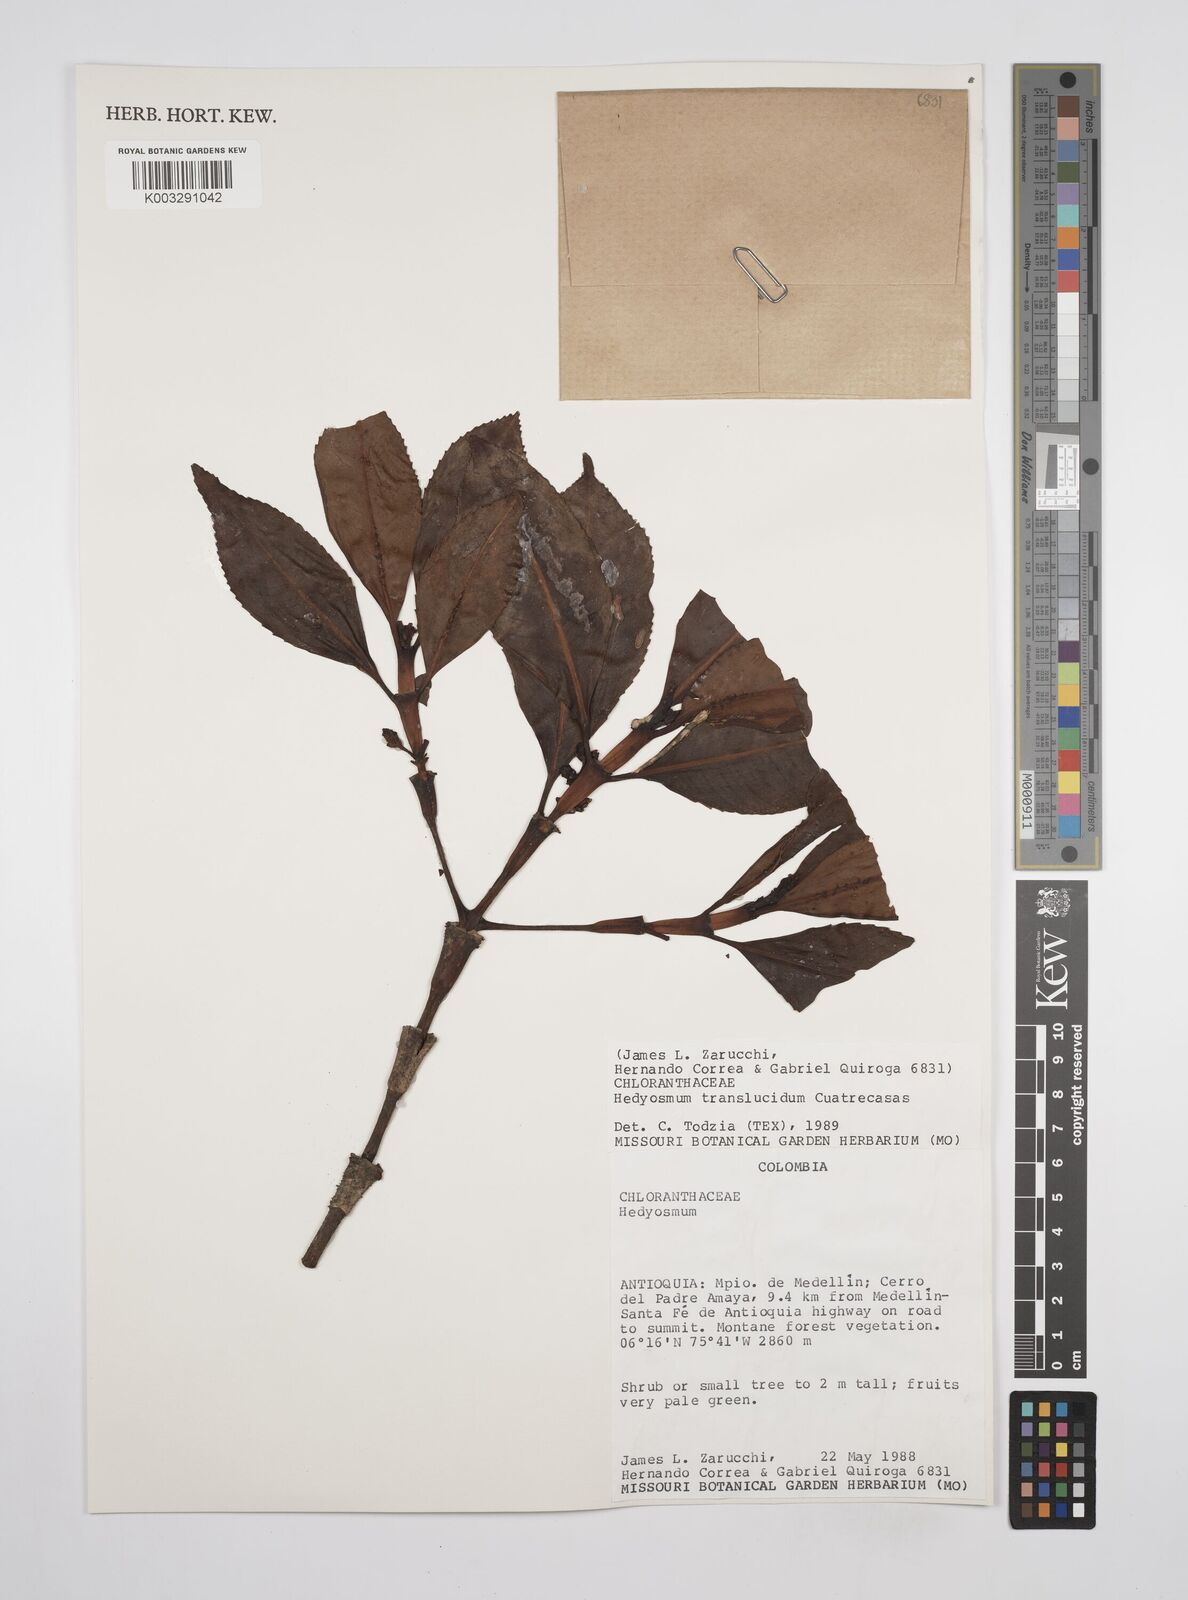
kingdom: Plantae
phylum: Tracheophyta
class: Magnoliopsida
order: Chloranthales
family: Chloranthaceae
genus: Hedyosmum
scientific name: Hedyosmum translucidum
